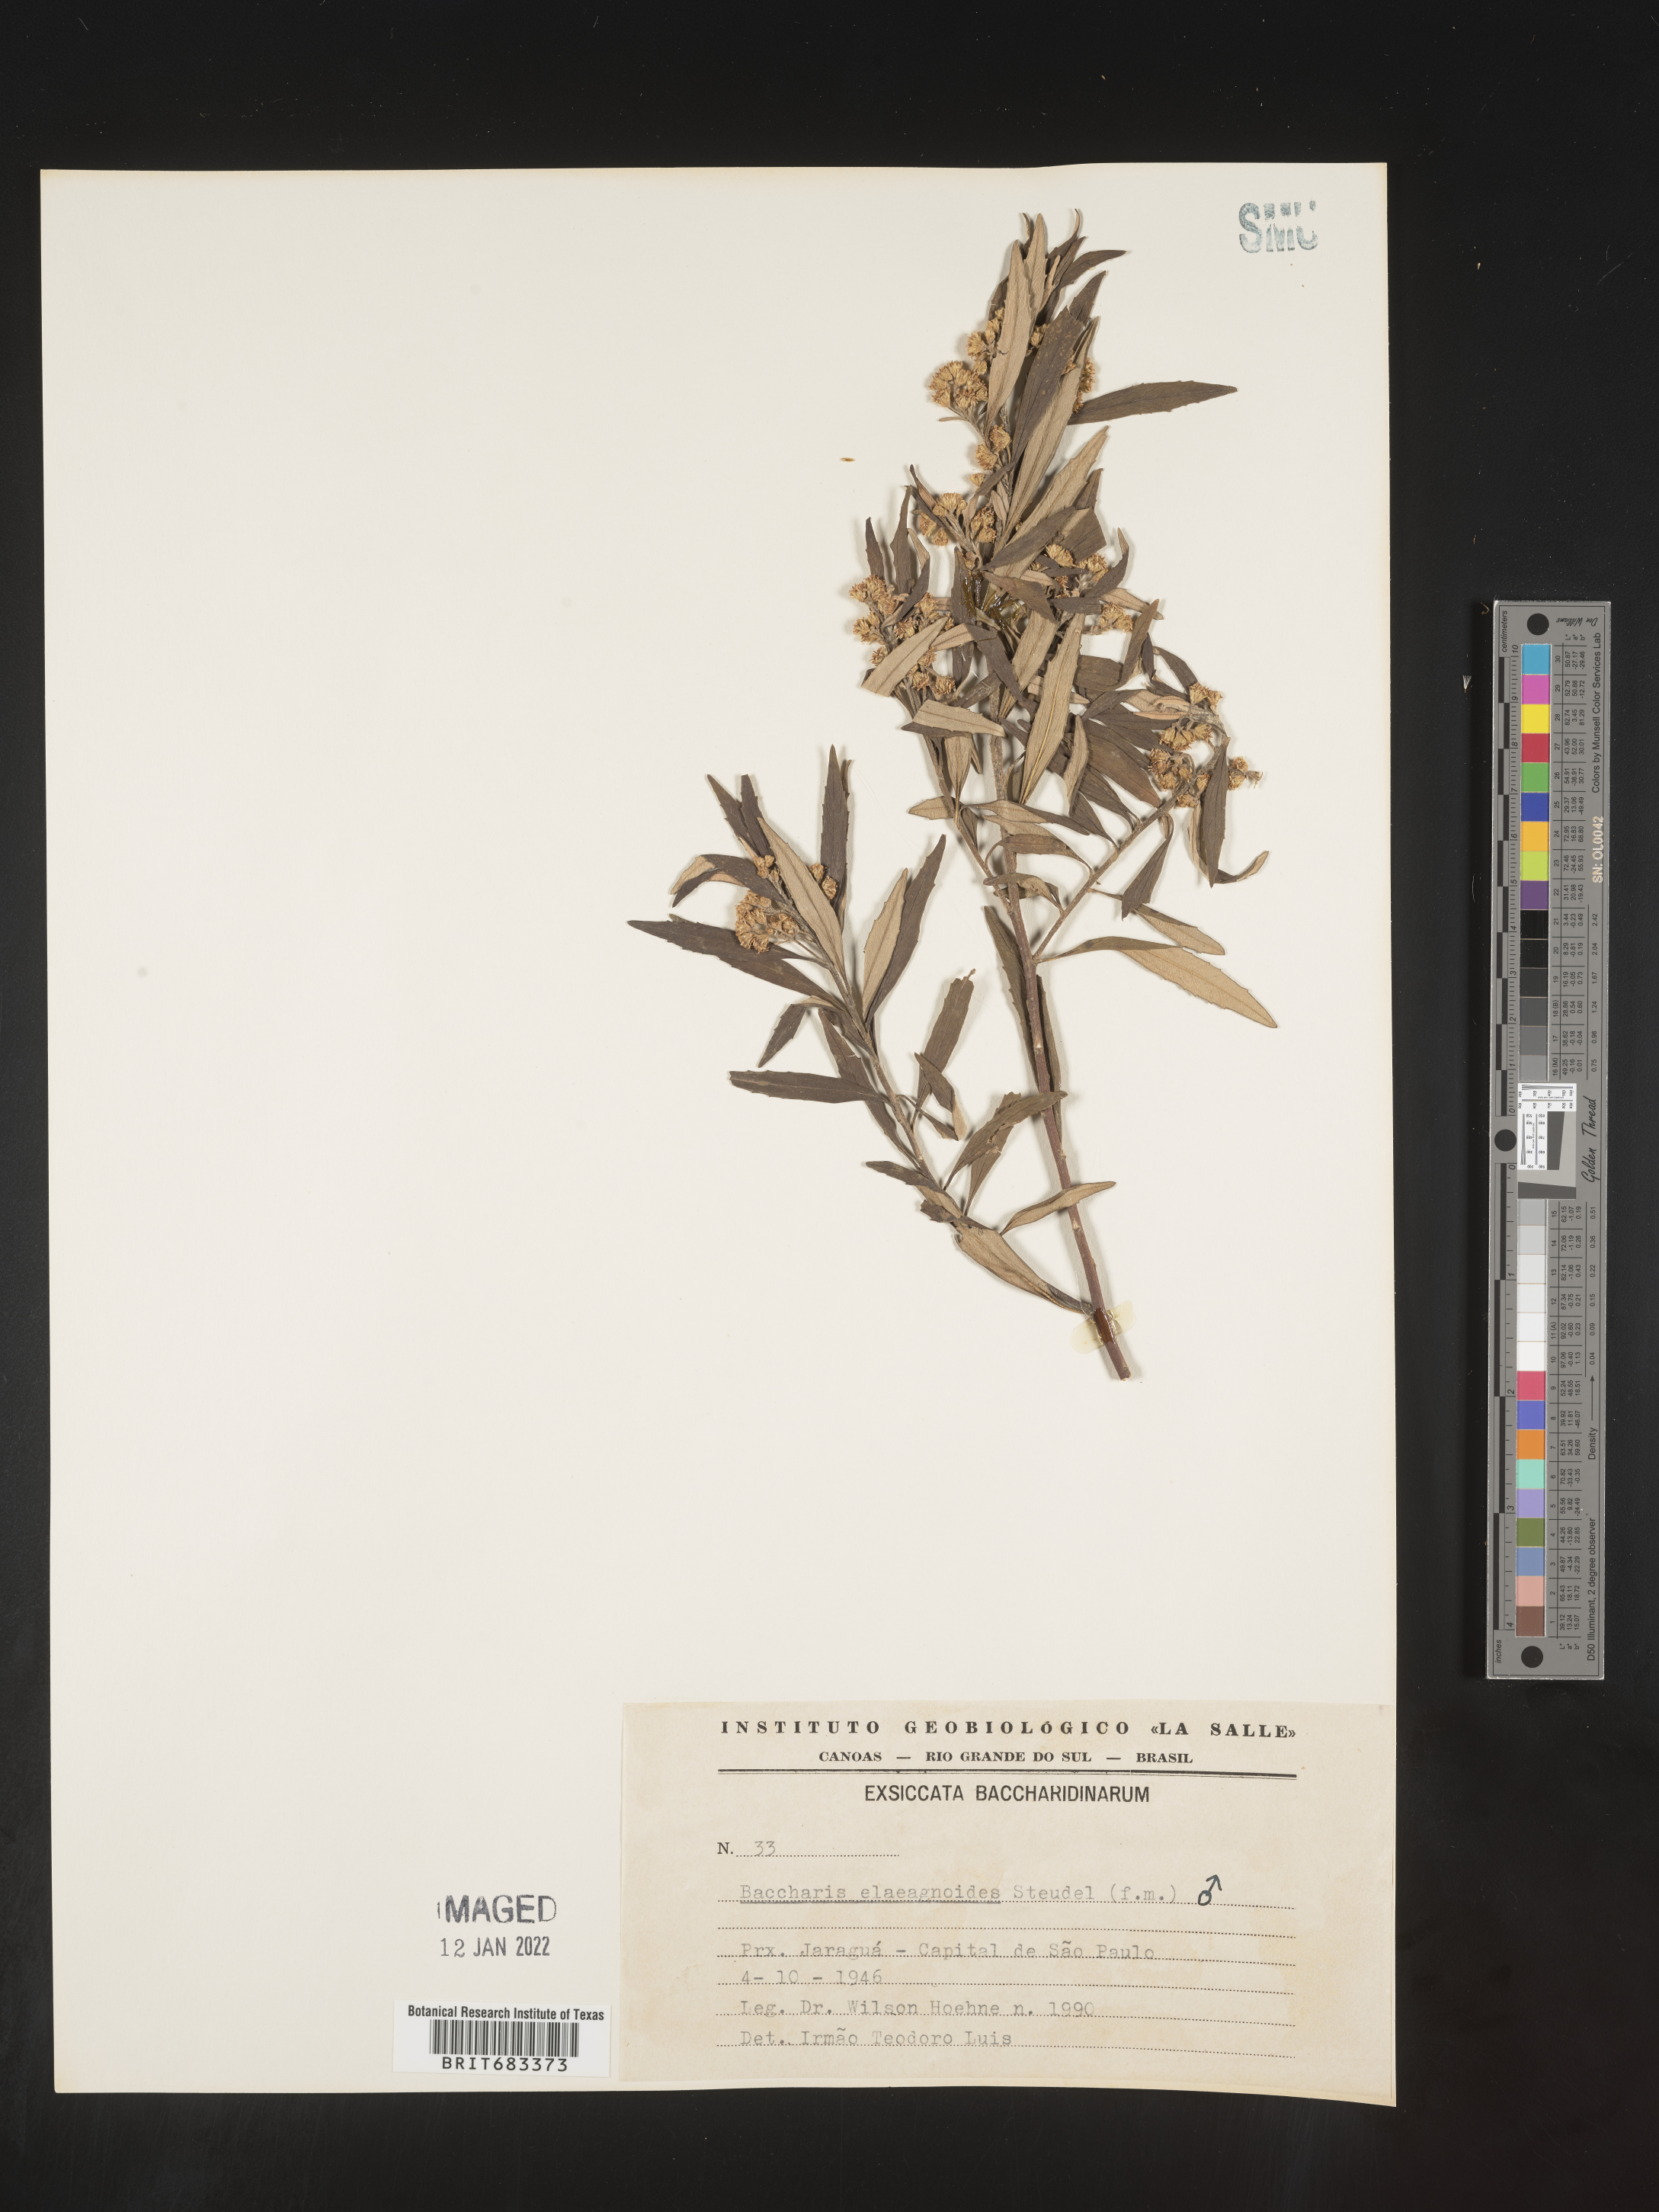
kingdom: Plantae
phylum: Tracheophyta
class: Magnoliopsida
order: Asterales
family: Asteraceae
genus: Baccharis
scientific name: Baccharis
